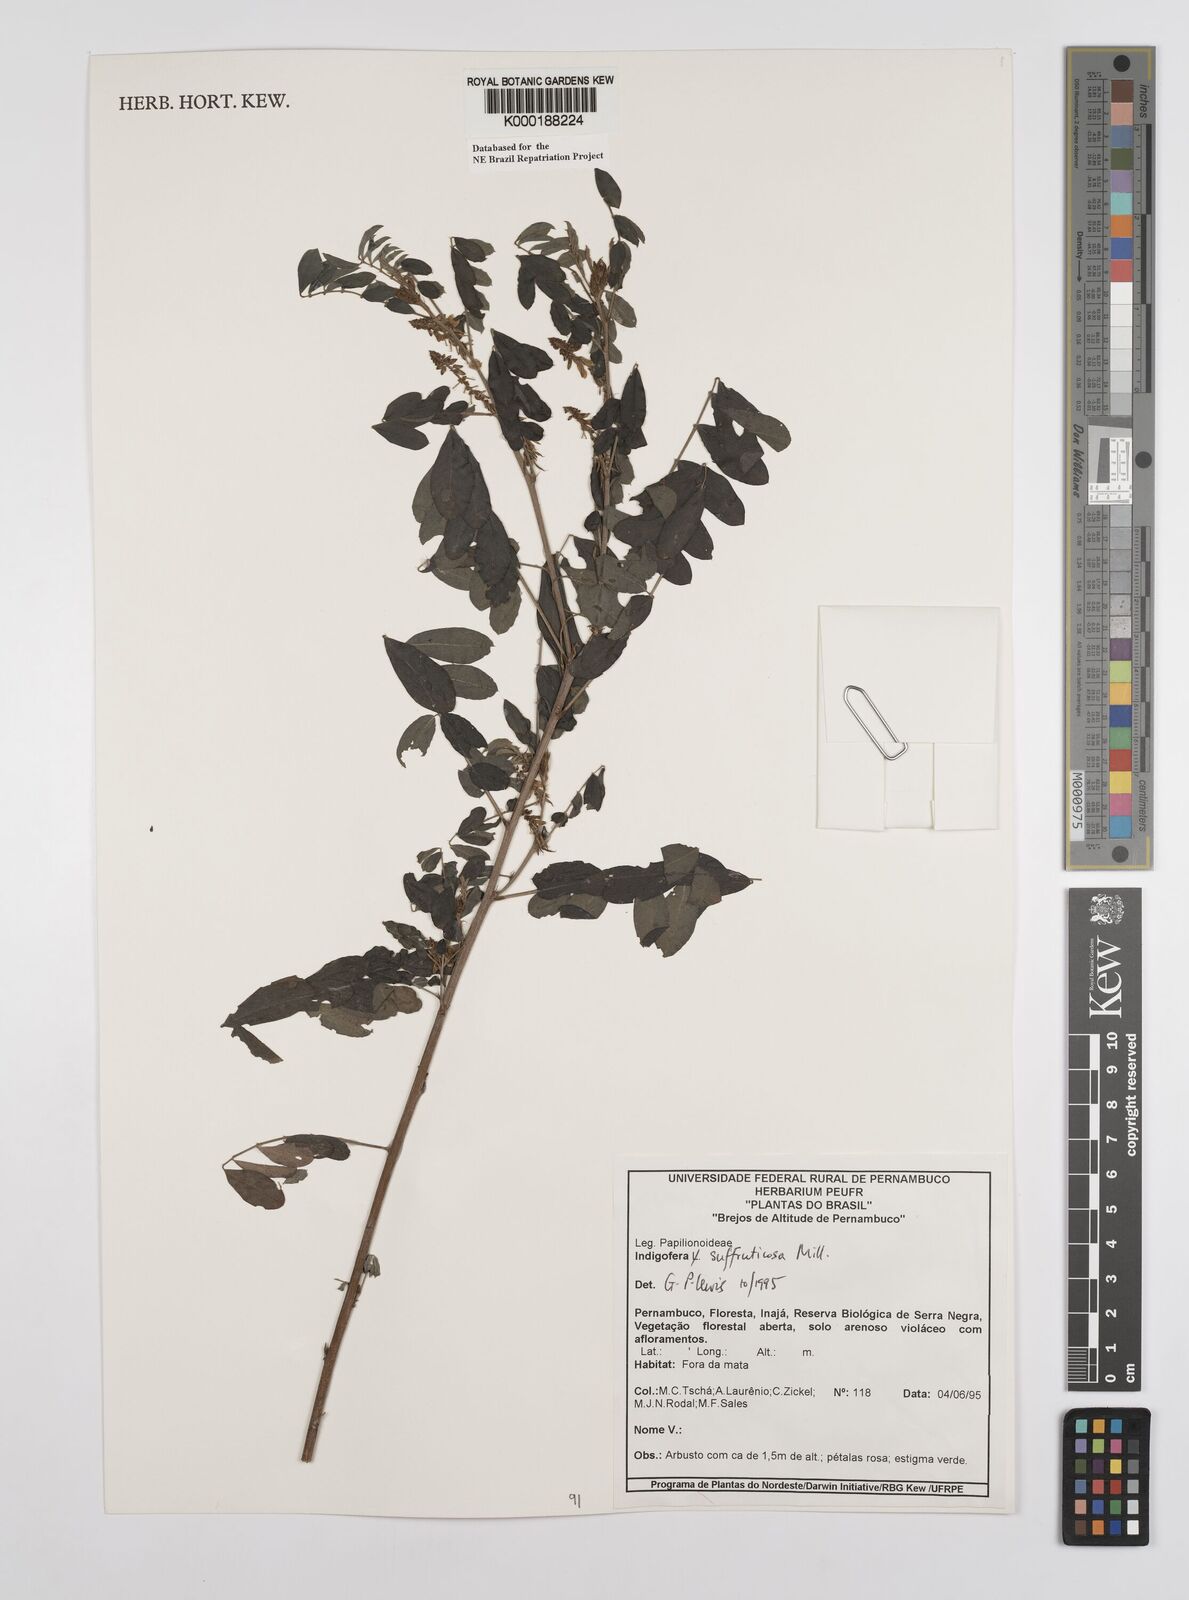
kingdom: Plantae
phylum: Tracheophyta
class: Magnoliopsida
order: Fabales
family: Fabaceae
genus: Indigofera
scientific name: Indigofera suffruticosa
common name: Anil de pasto
